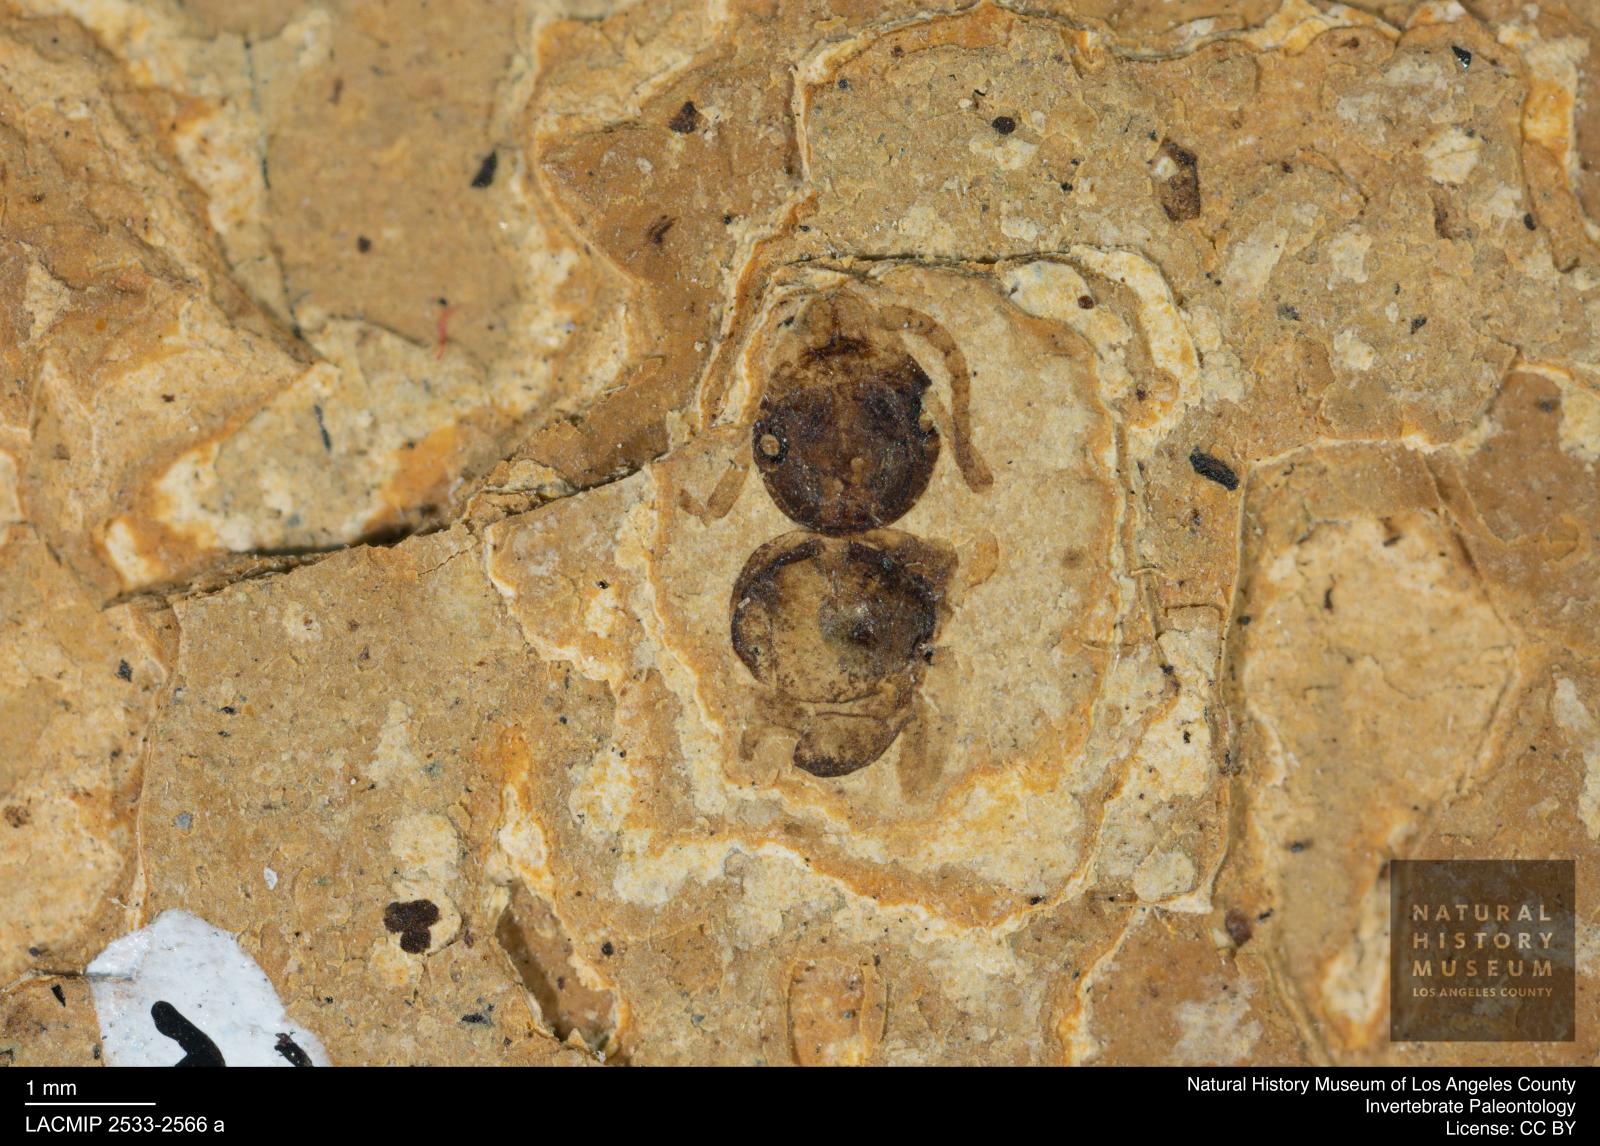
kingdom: Animalia
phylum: Arthropoda
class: Insecta
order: Hymenoptera
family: Formicidae
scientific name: Formicidae
